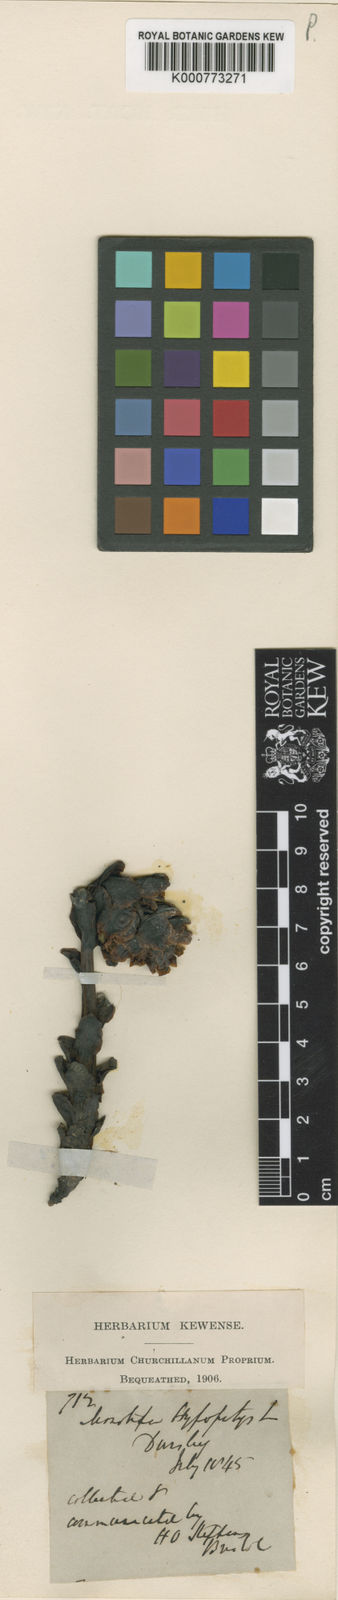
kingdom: Plantae
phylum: Tracheophyta
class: Magnoliopsida
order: Ericales
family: Ericaceae
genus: Monotropa
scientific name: Monotropa
